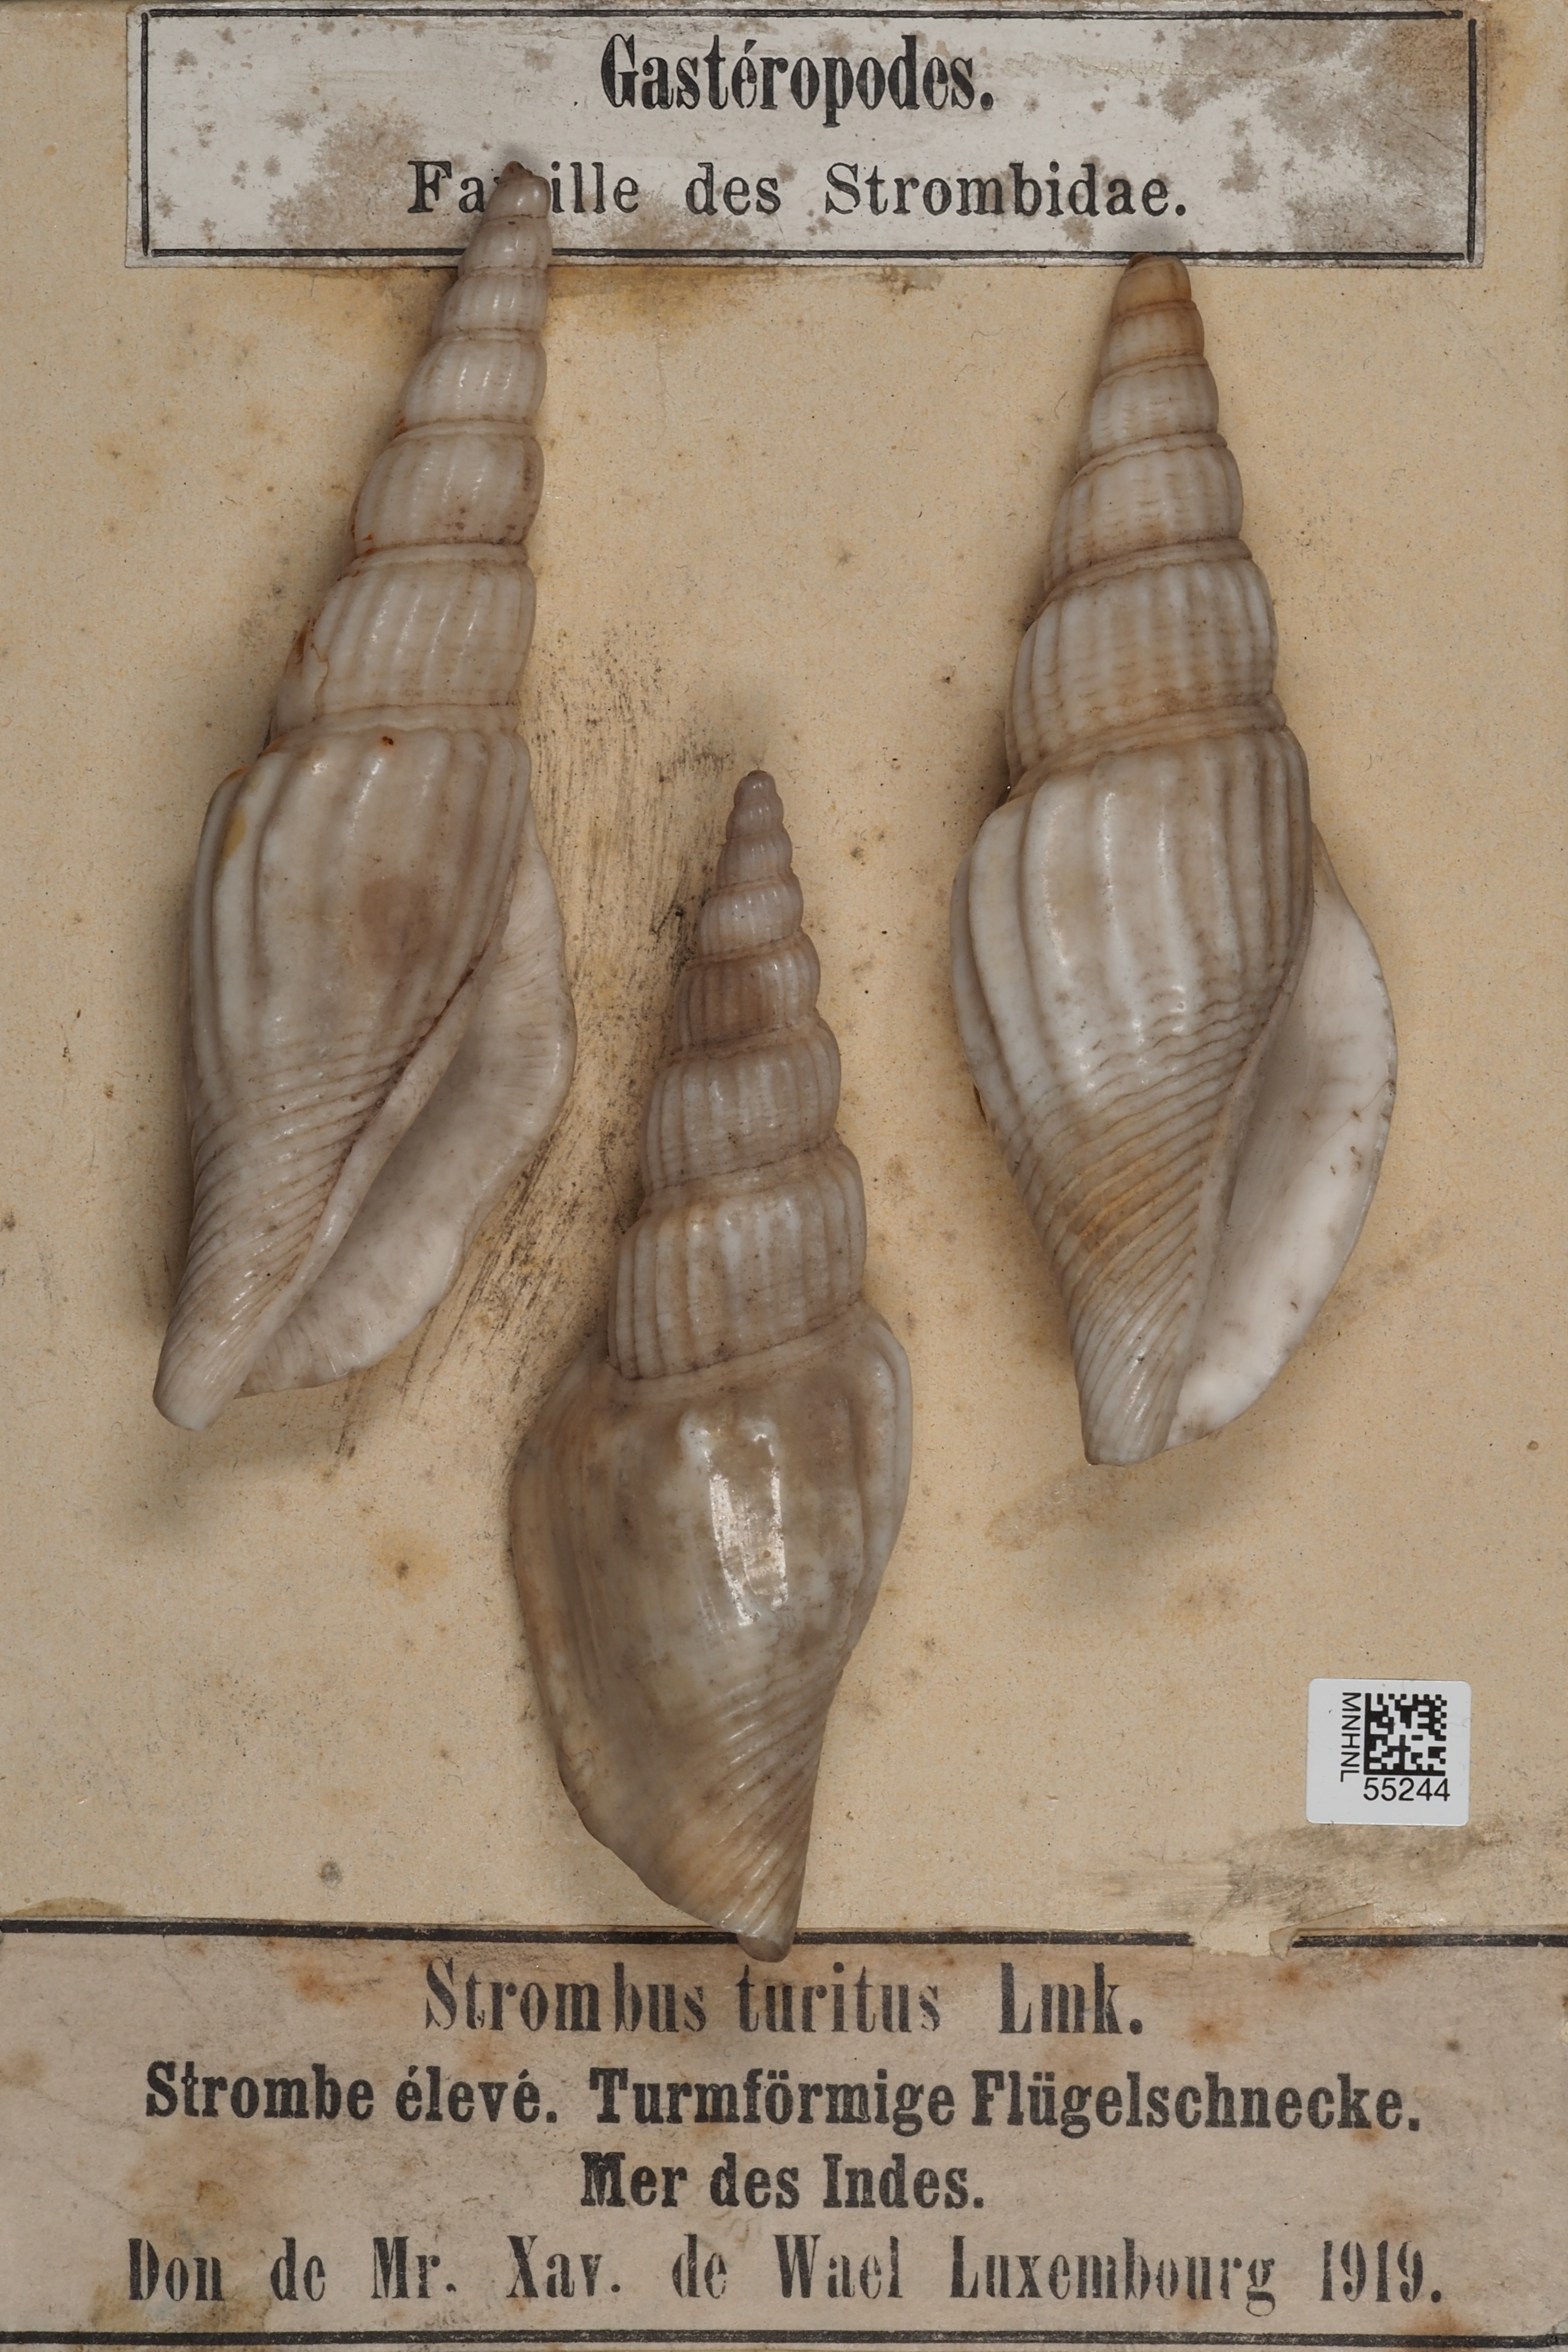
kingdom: Animalia
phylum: Mollusca
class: Gastropoda
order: Littorinimorpha
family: Strombidae
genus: Strombus
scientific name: Strombus
